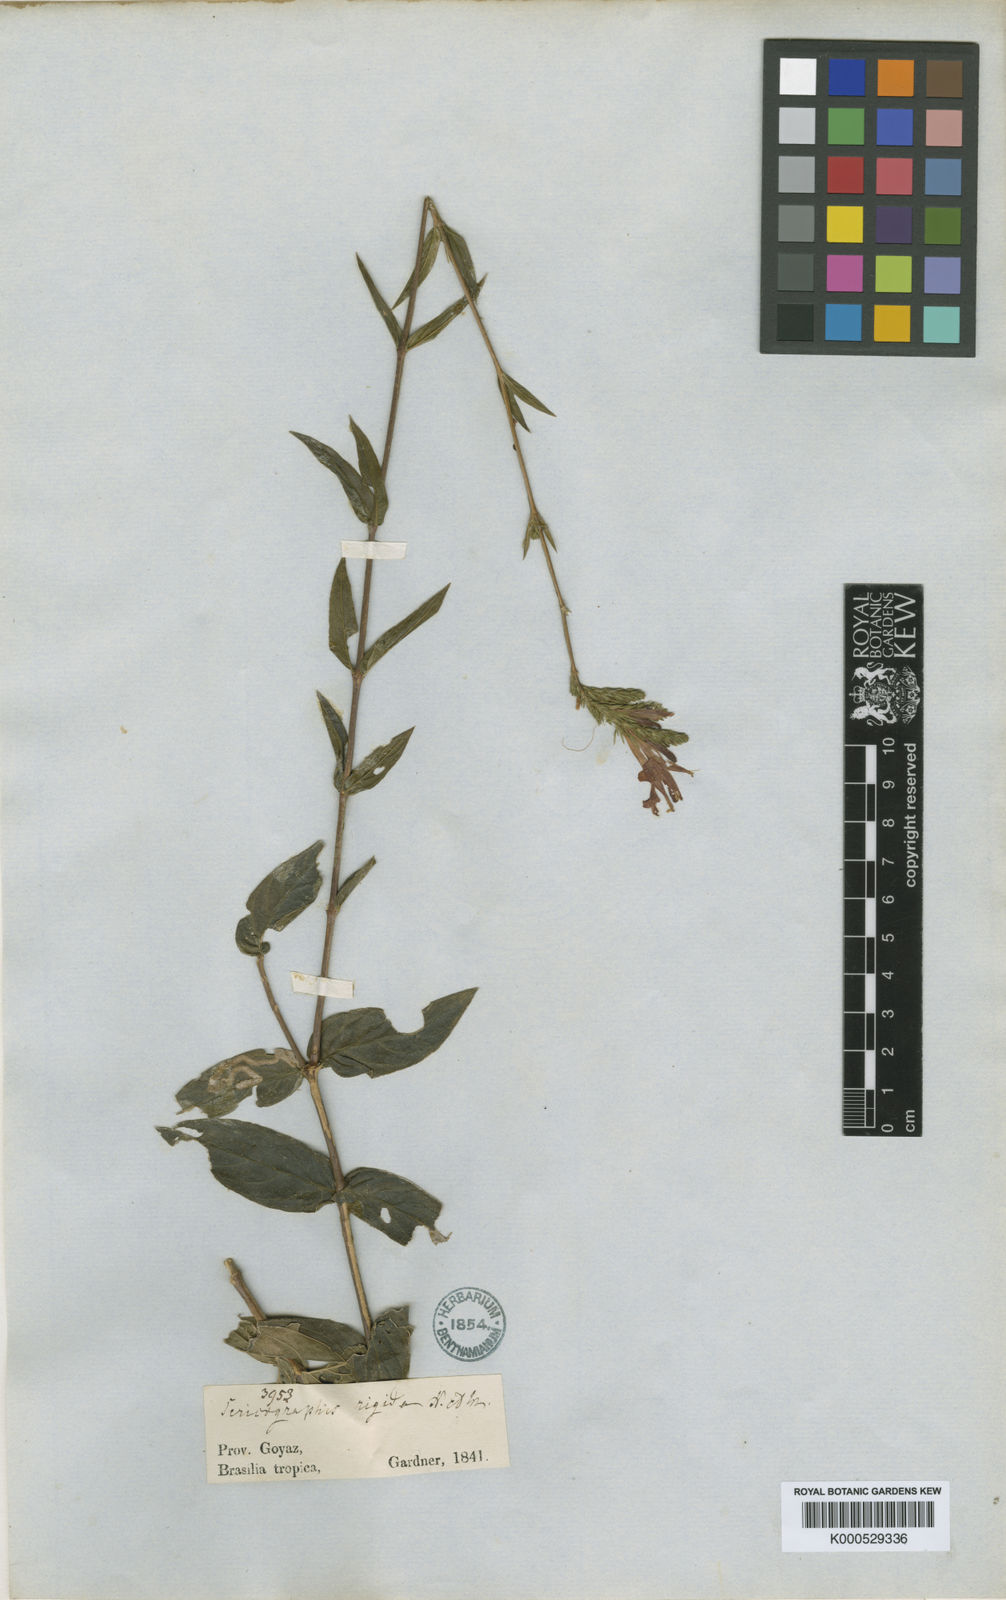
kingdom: Plantae
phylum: Tracheophyta
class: Magnoliopsida
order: Lamiales
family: Acanthaceae
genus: Dianthera
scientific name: Dianthera rigida
